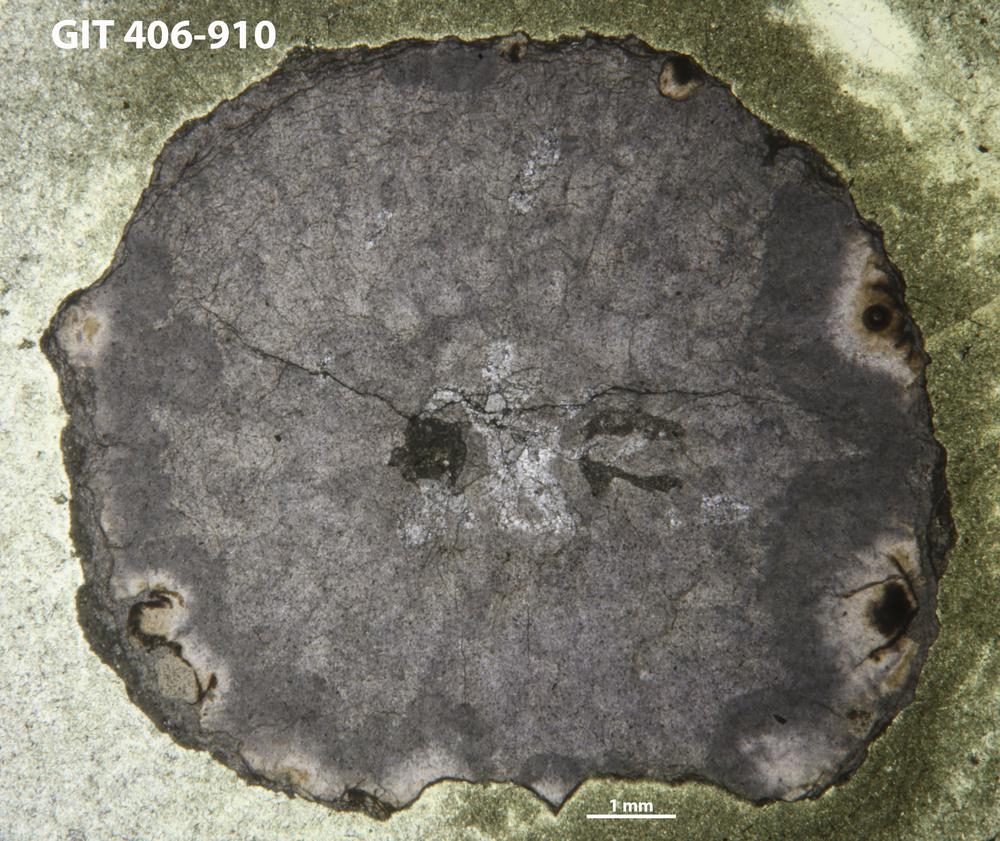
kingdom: Animalia
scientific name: Animalia
